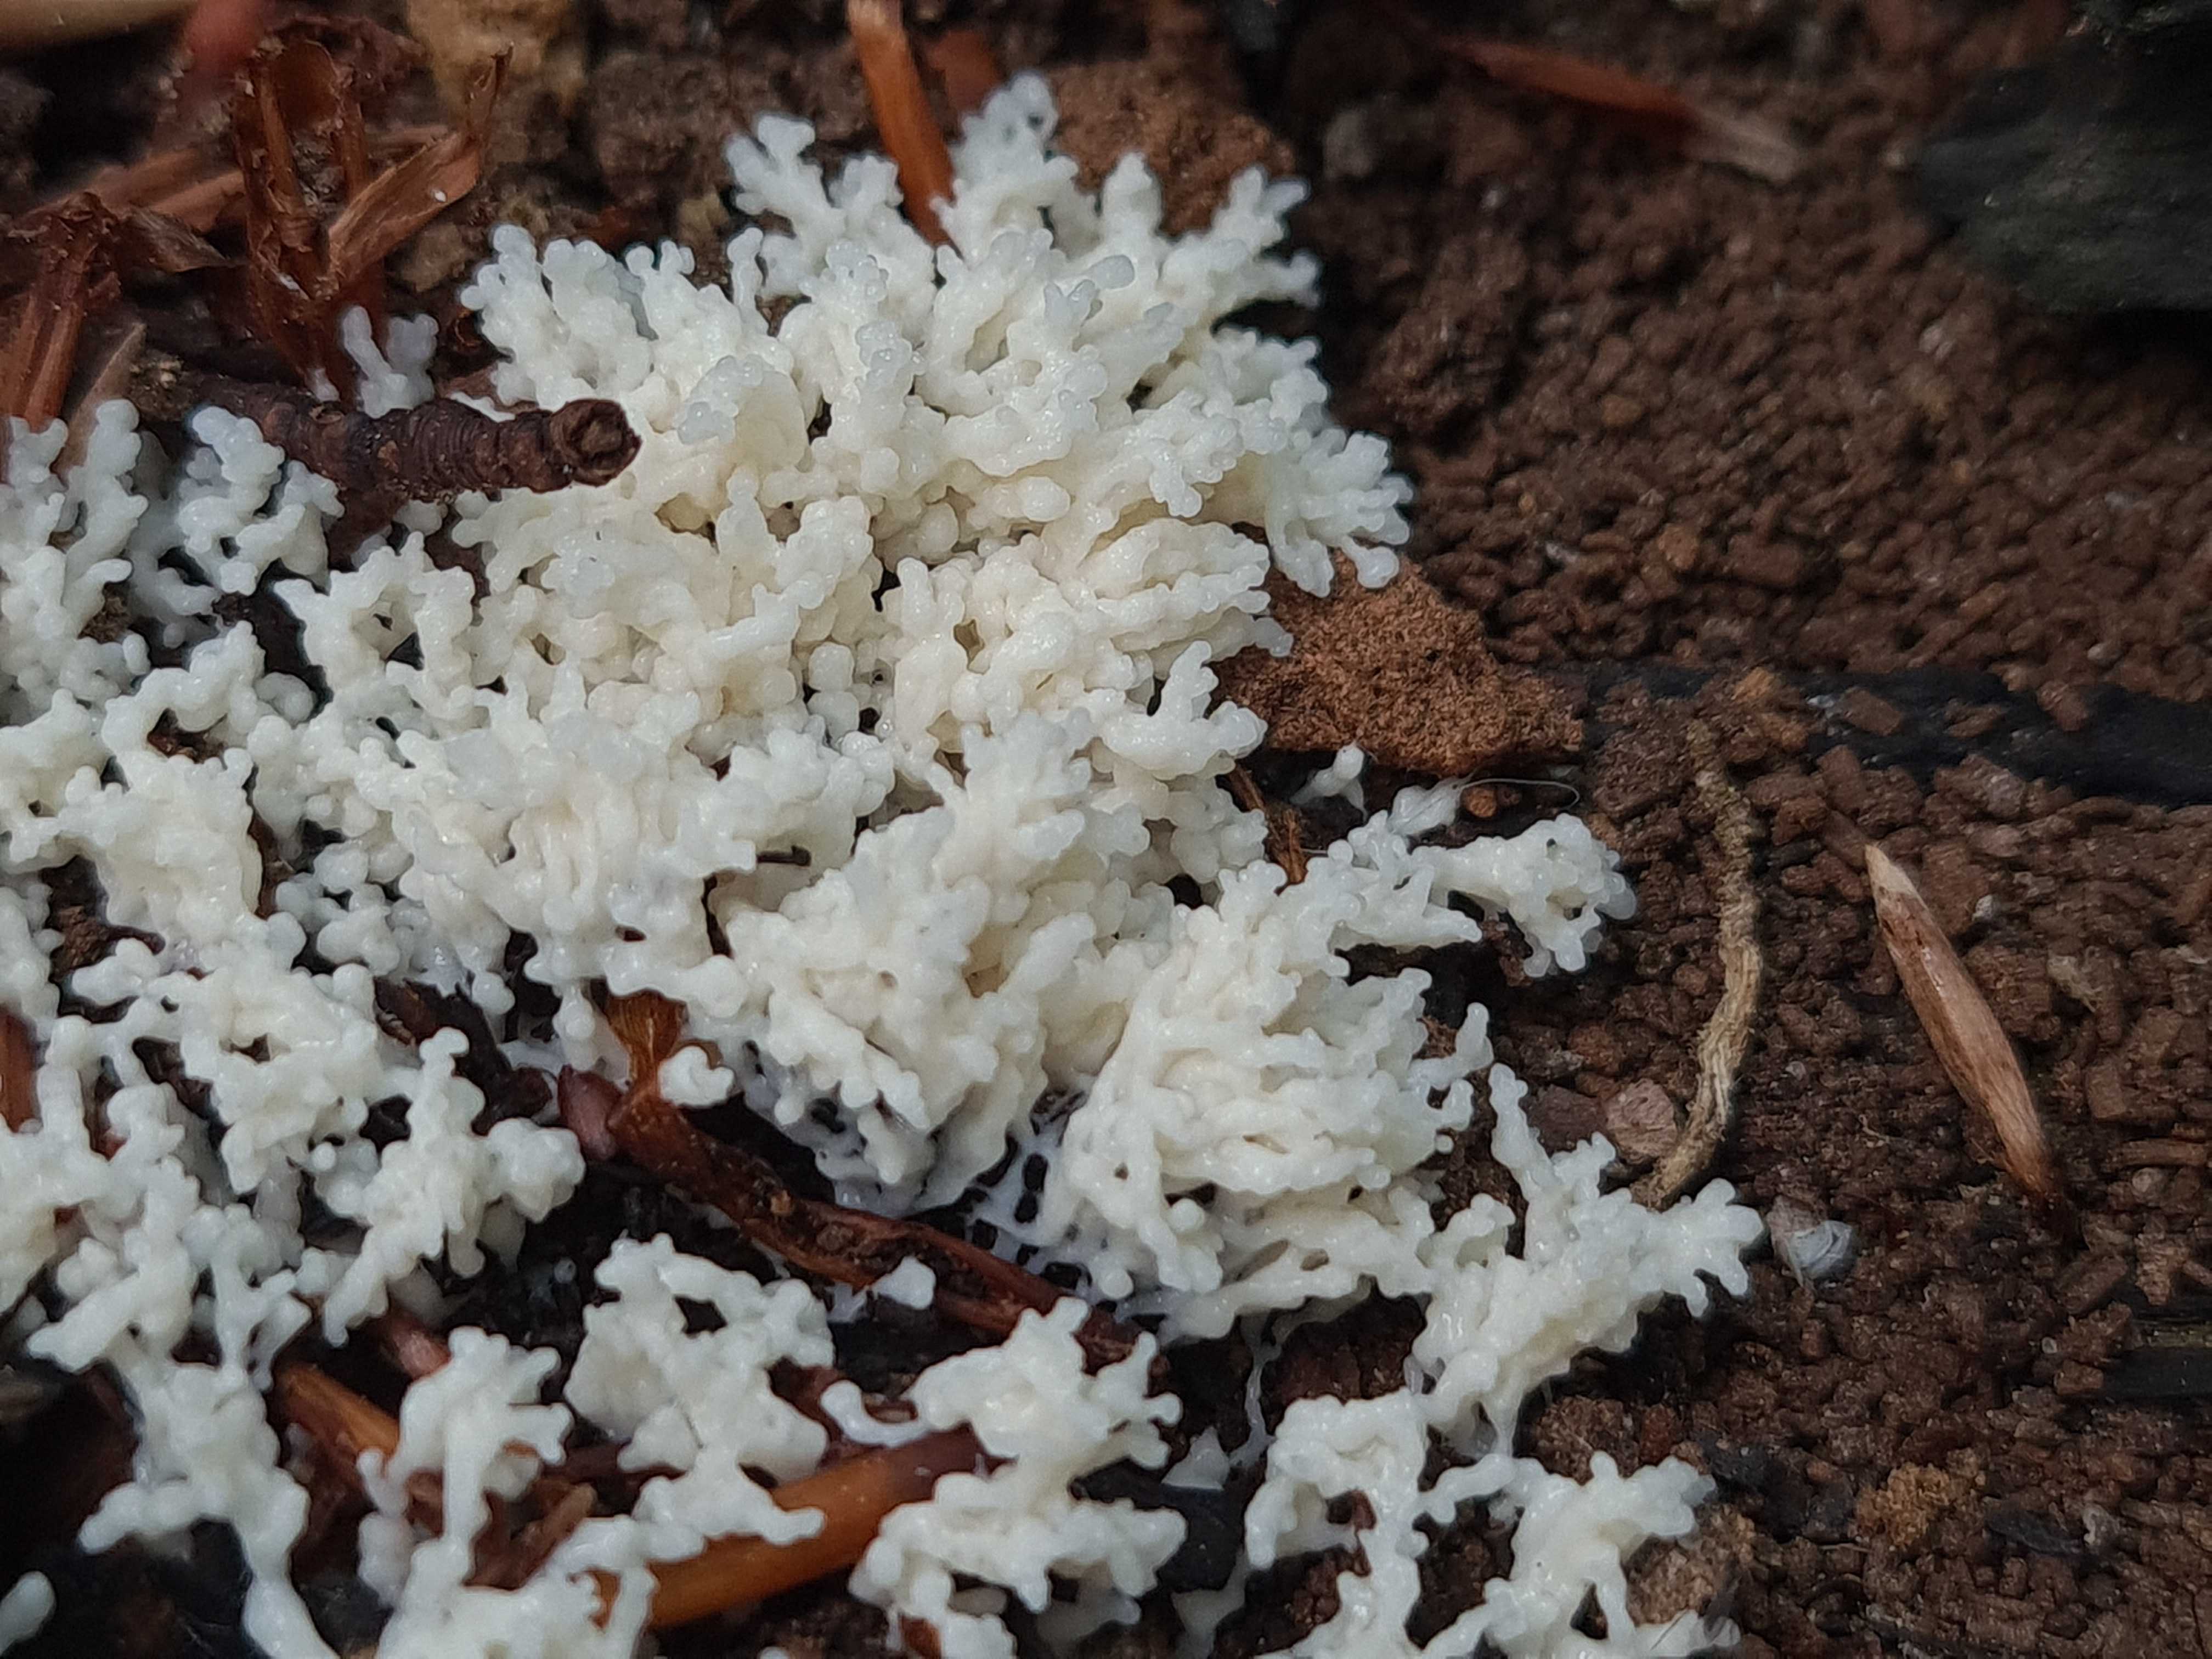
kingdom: Protozoa
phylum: Mycetozoa
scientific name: Mycetozoa
